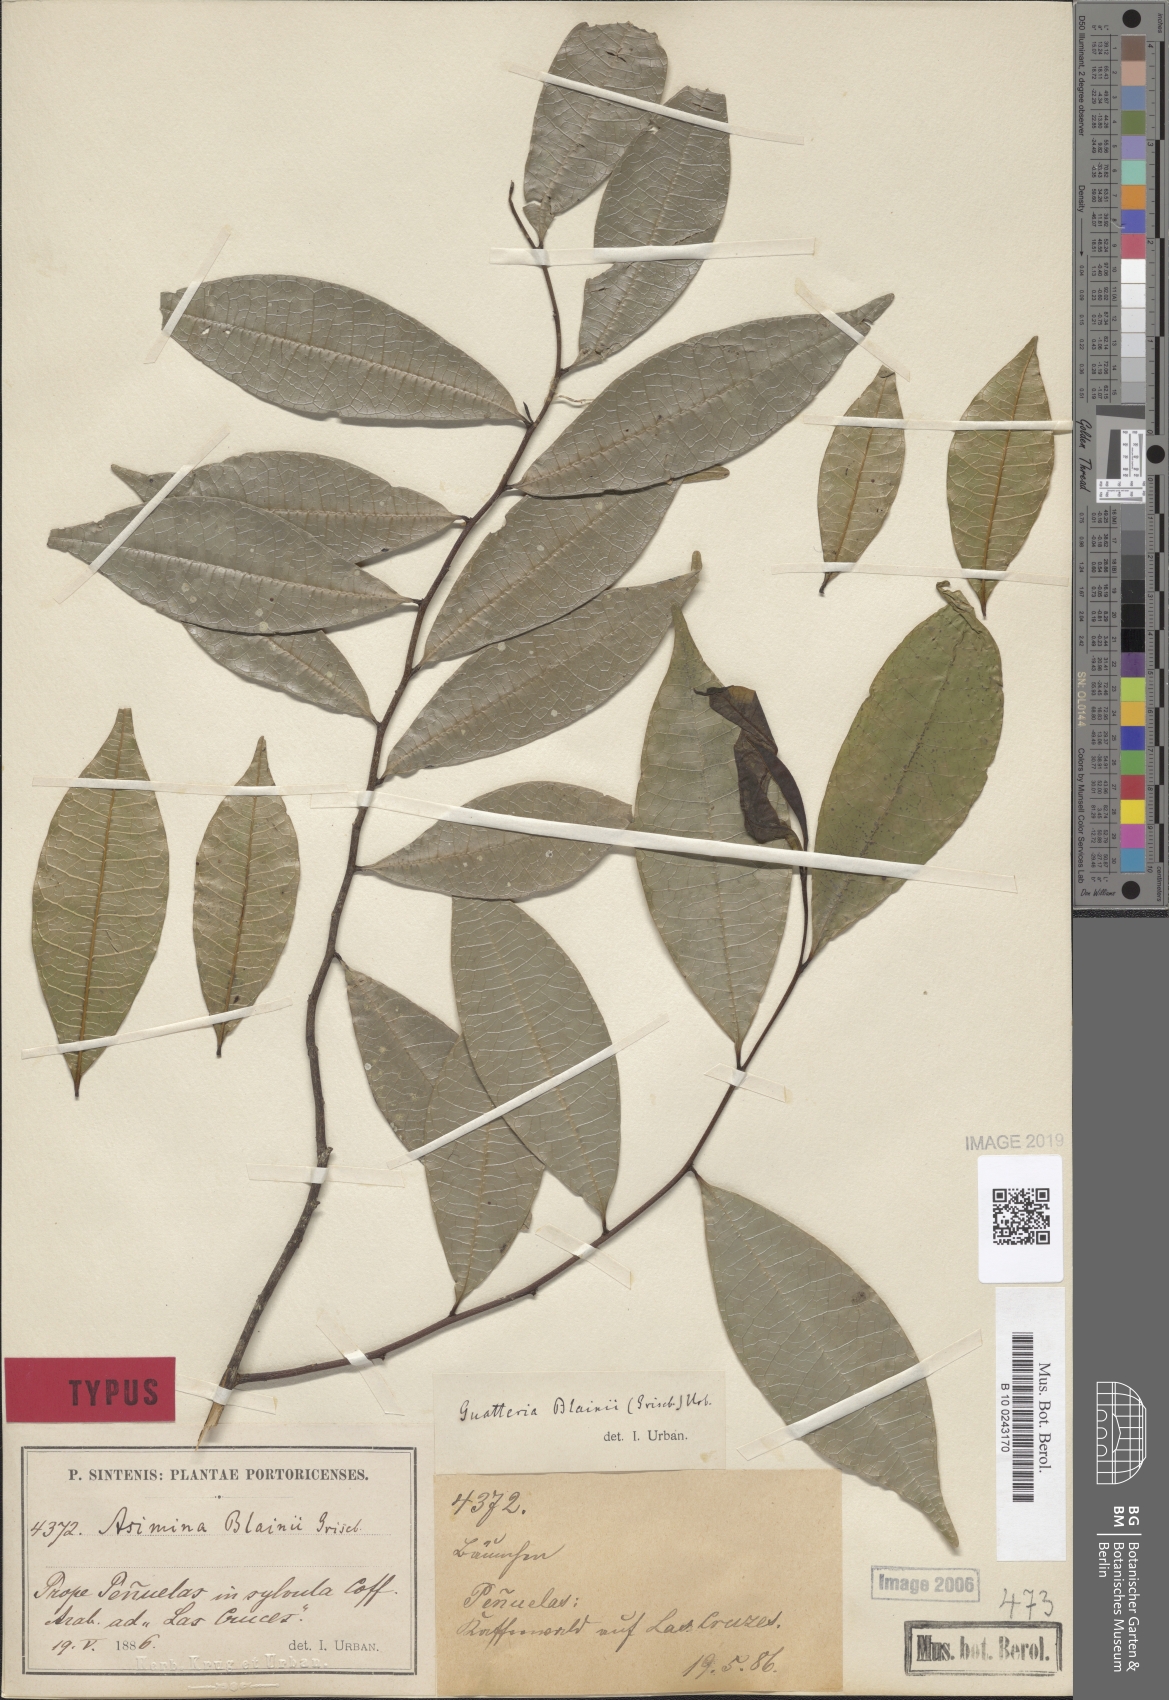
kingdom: Plantae
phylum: Tracheophyta
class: Magnoliopsida
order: Magnoliales
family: Annonaceae
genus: Guatteria
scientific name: Guatteria blainii
